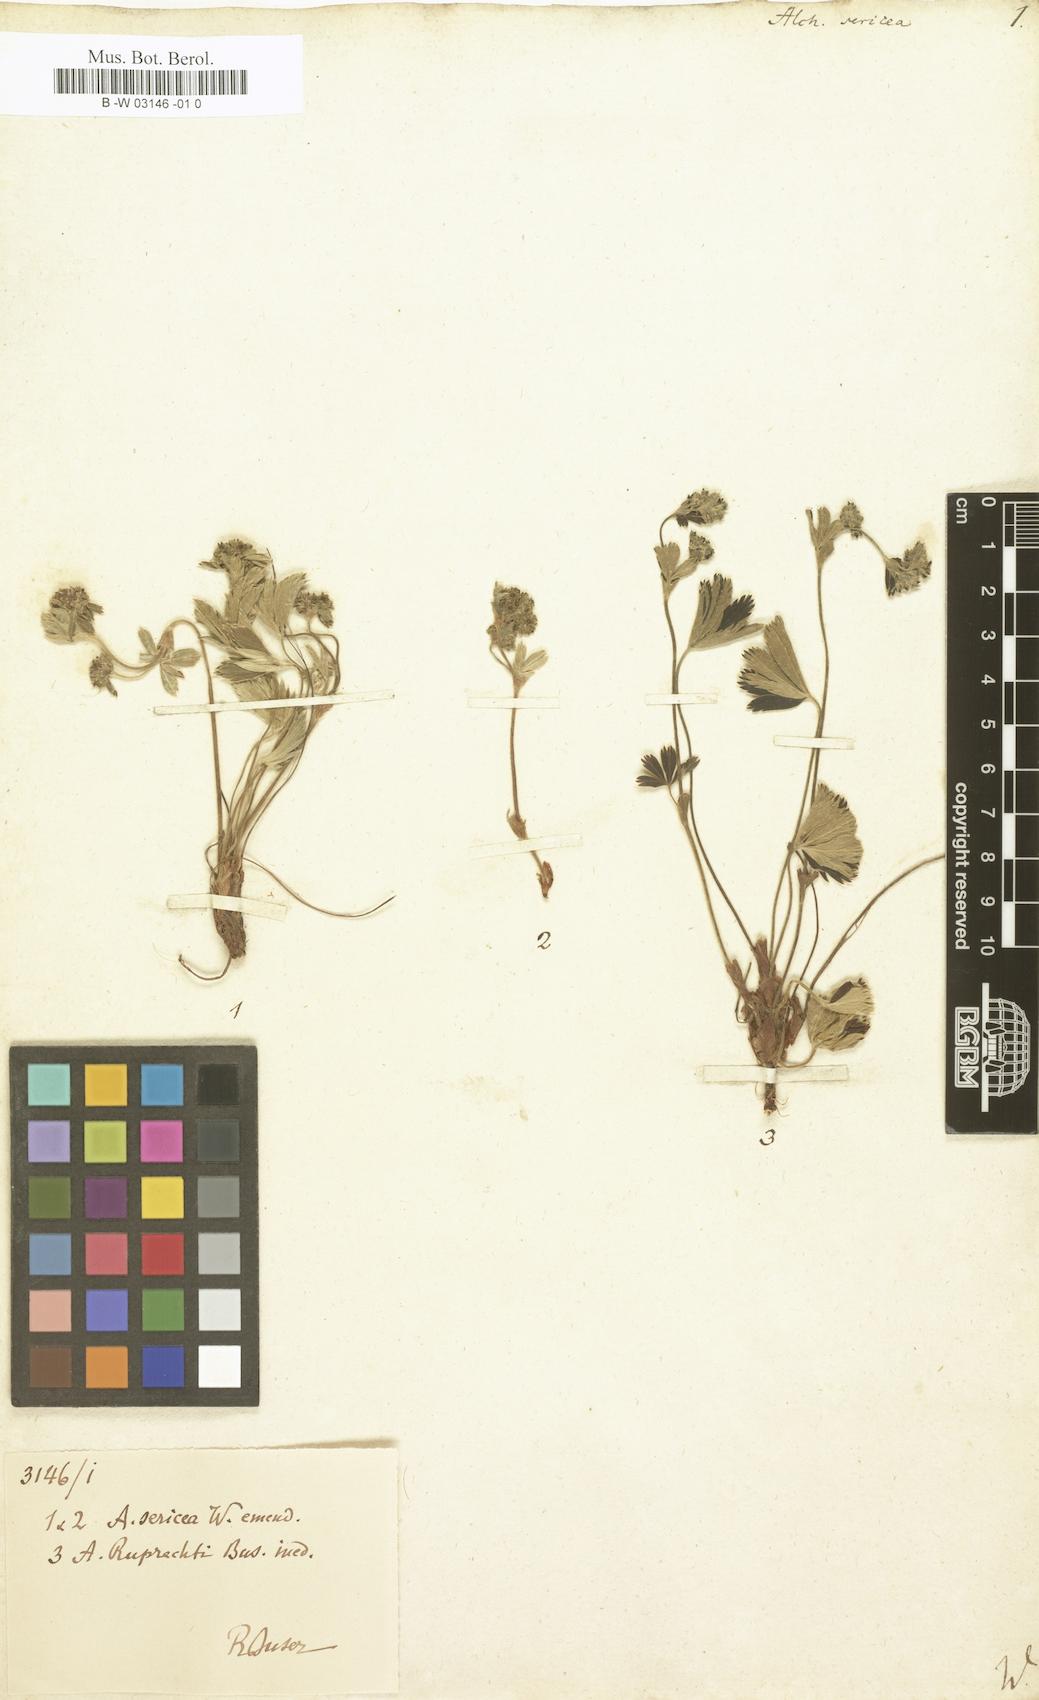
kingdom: Plantae
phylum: Tracheophyta
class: Magnoliopsida
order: Rosales
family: Rosaceae
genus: Alchemilla
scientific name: Alchemilla sericea
